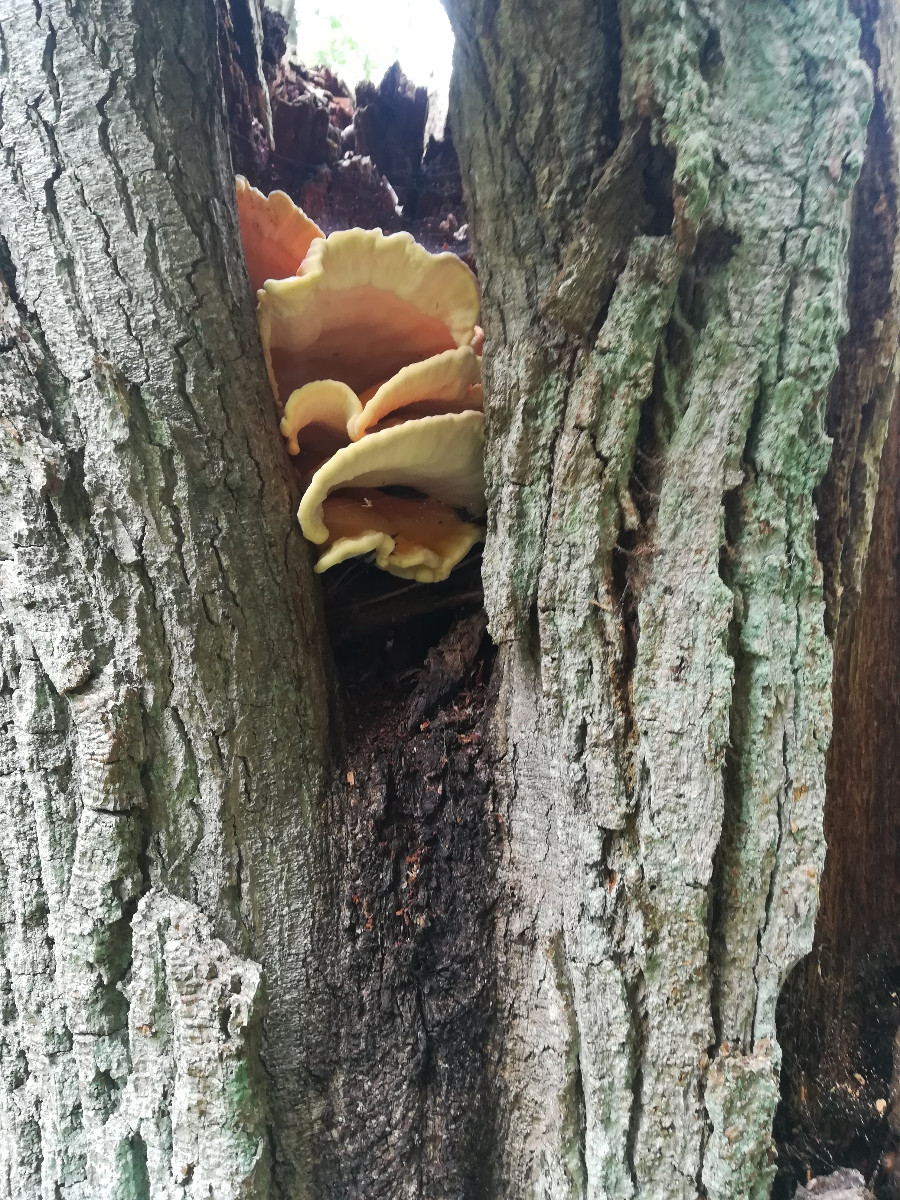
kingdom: Fungi
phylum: Basidiomycota
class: Agaricomycetes
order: Polyporales
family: Laetiporaceae
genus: Laetiporus
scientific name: Laetiporus sulphureus
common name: svovlporesvamp
